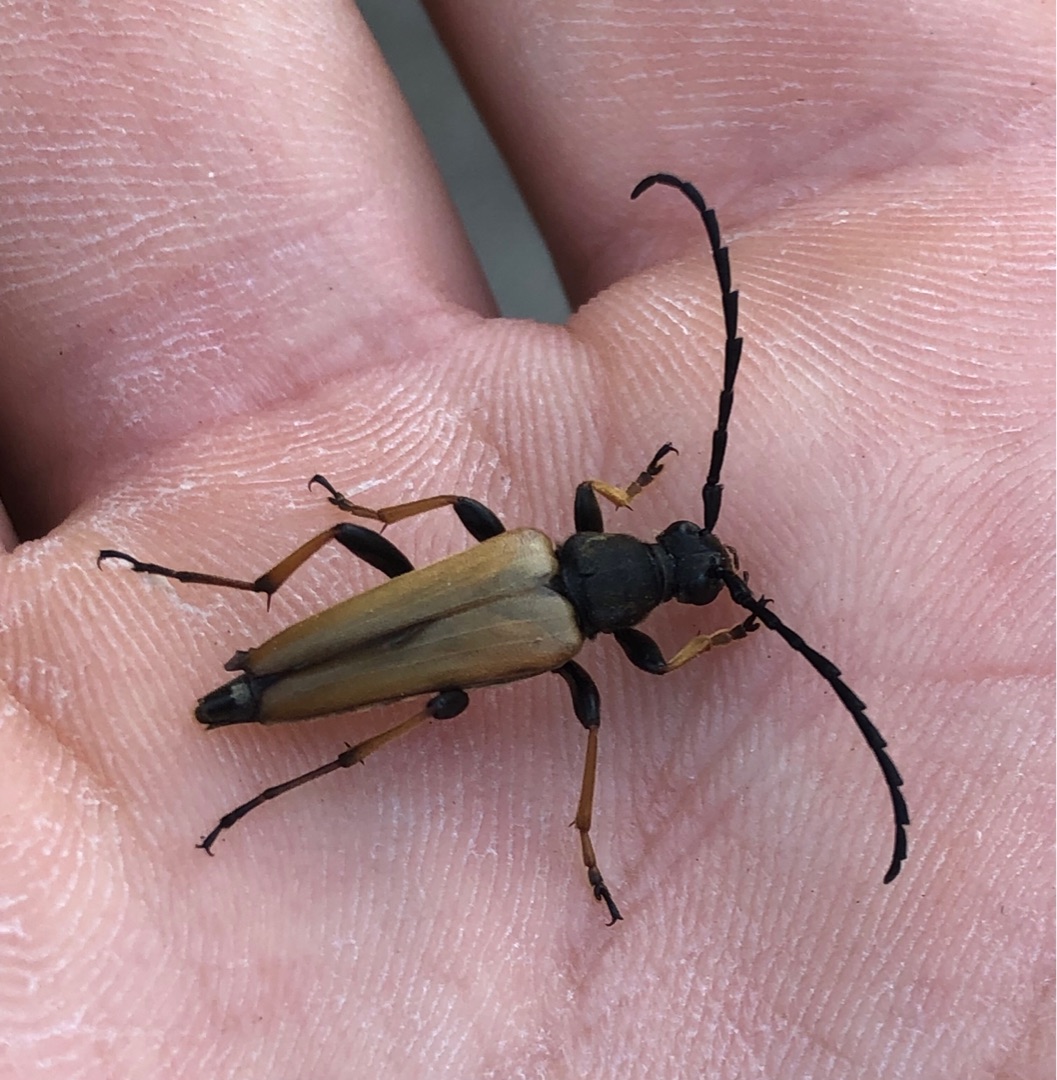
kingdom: Animalia
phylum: Arthropoda
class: Insecta
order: Coleoptera
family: Cerambycidae
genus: Stictoleptura
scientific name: Stictoleptura rubra
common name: Rød blomsterbuk
